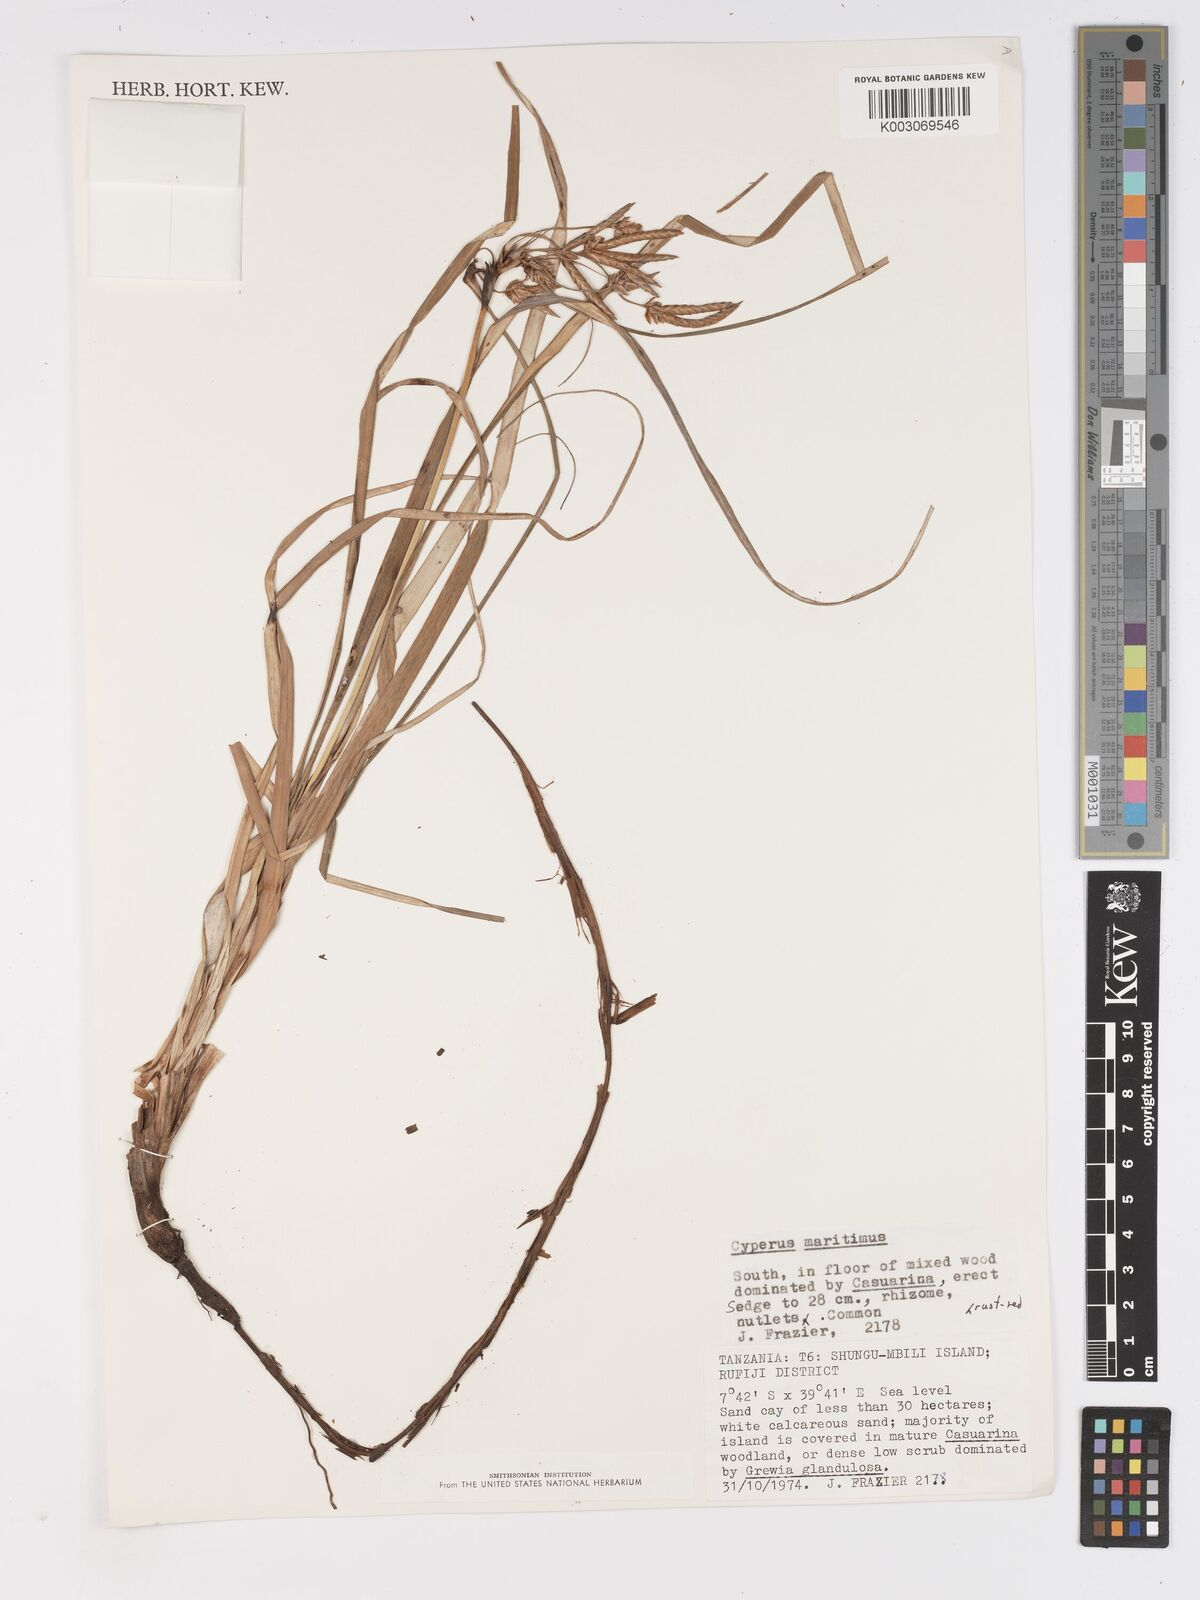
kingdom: Plantae
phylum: Tracheophyta
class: Liliopsida
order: Poales
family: Cyperaceae
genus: Cyperus
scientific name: Cyperus crassipes
